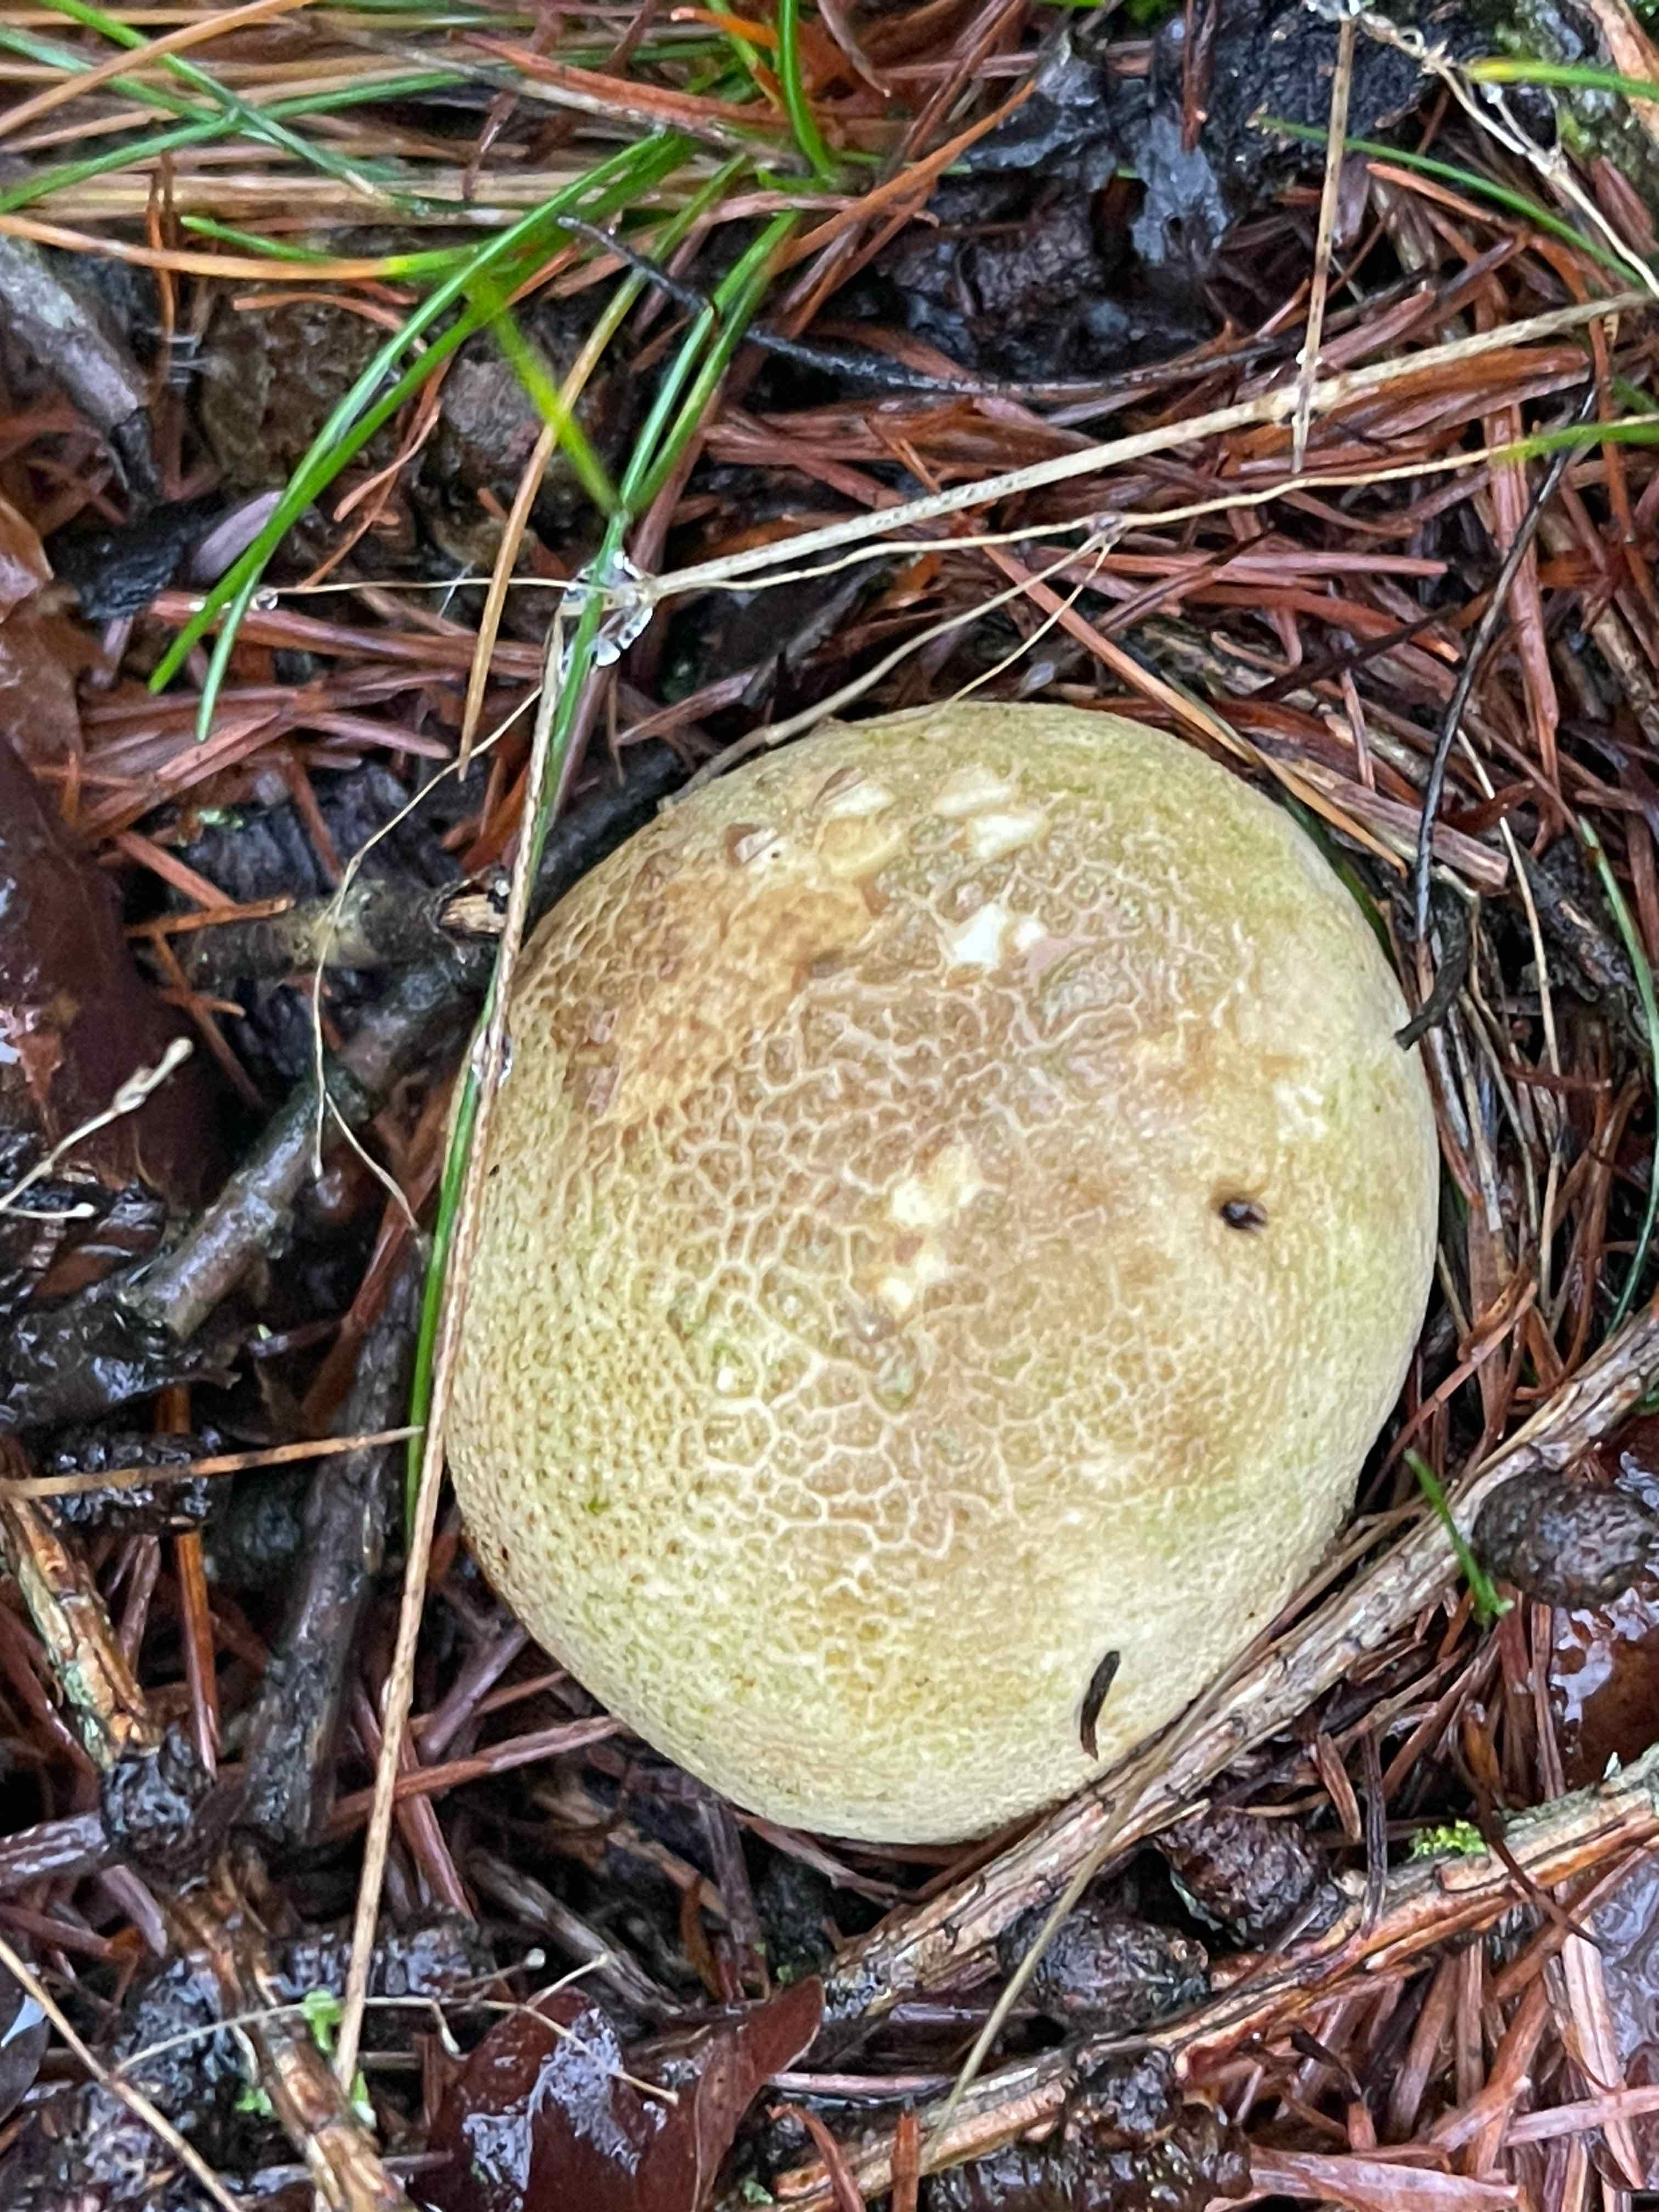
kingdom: Fungi
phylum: Basidiomycota
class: Agaricomycetes
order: Boletales
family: Sclerodermataceae
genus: Scleroderma
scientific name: Scleroderma citrinum
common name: almindelig bruskbold
